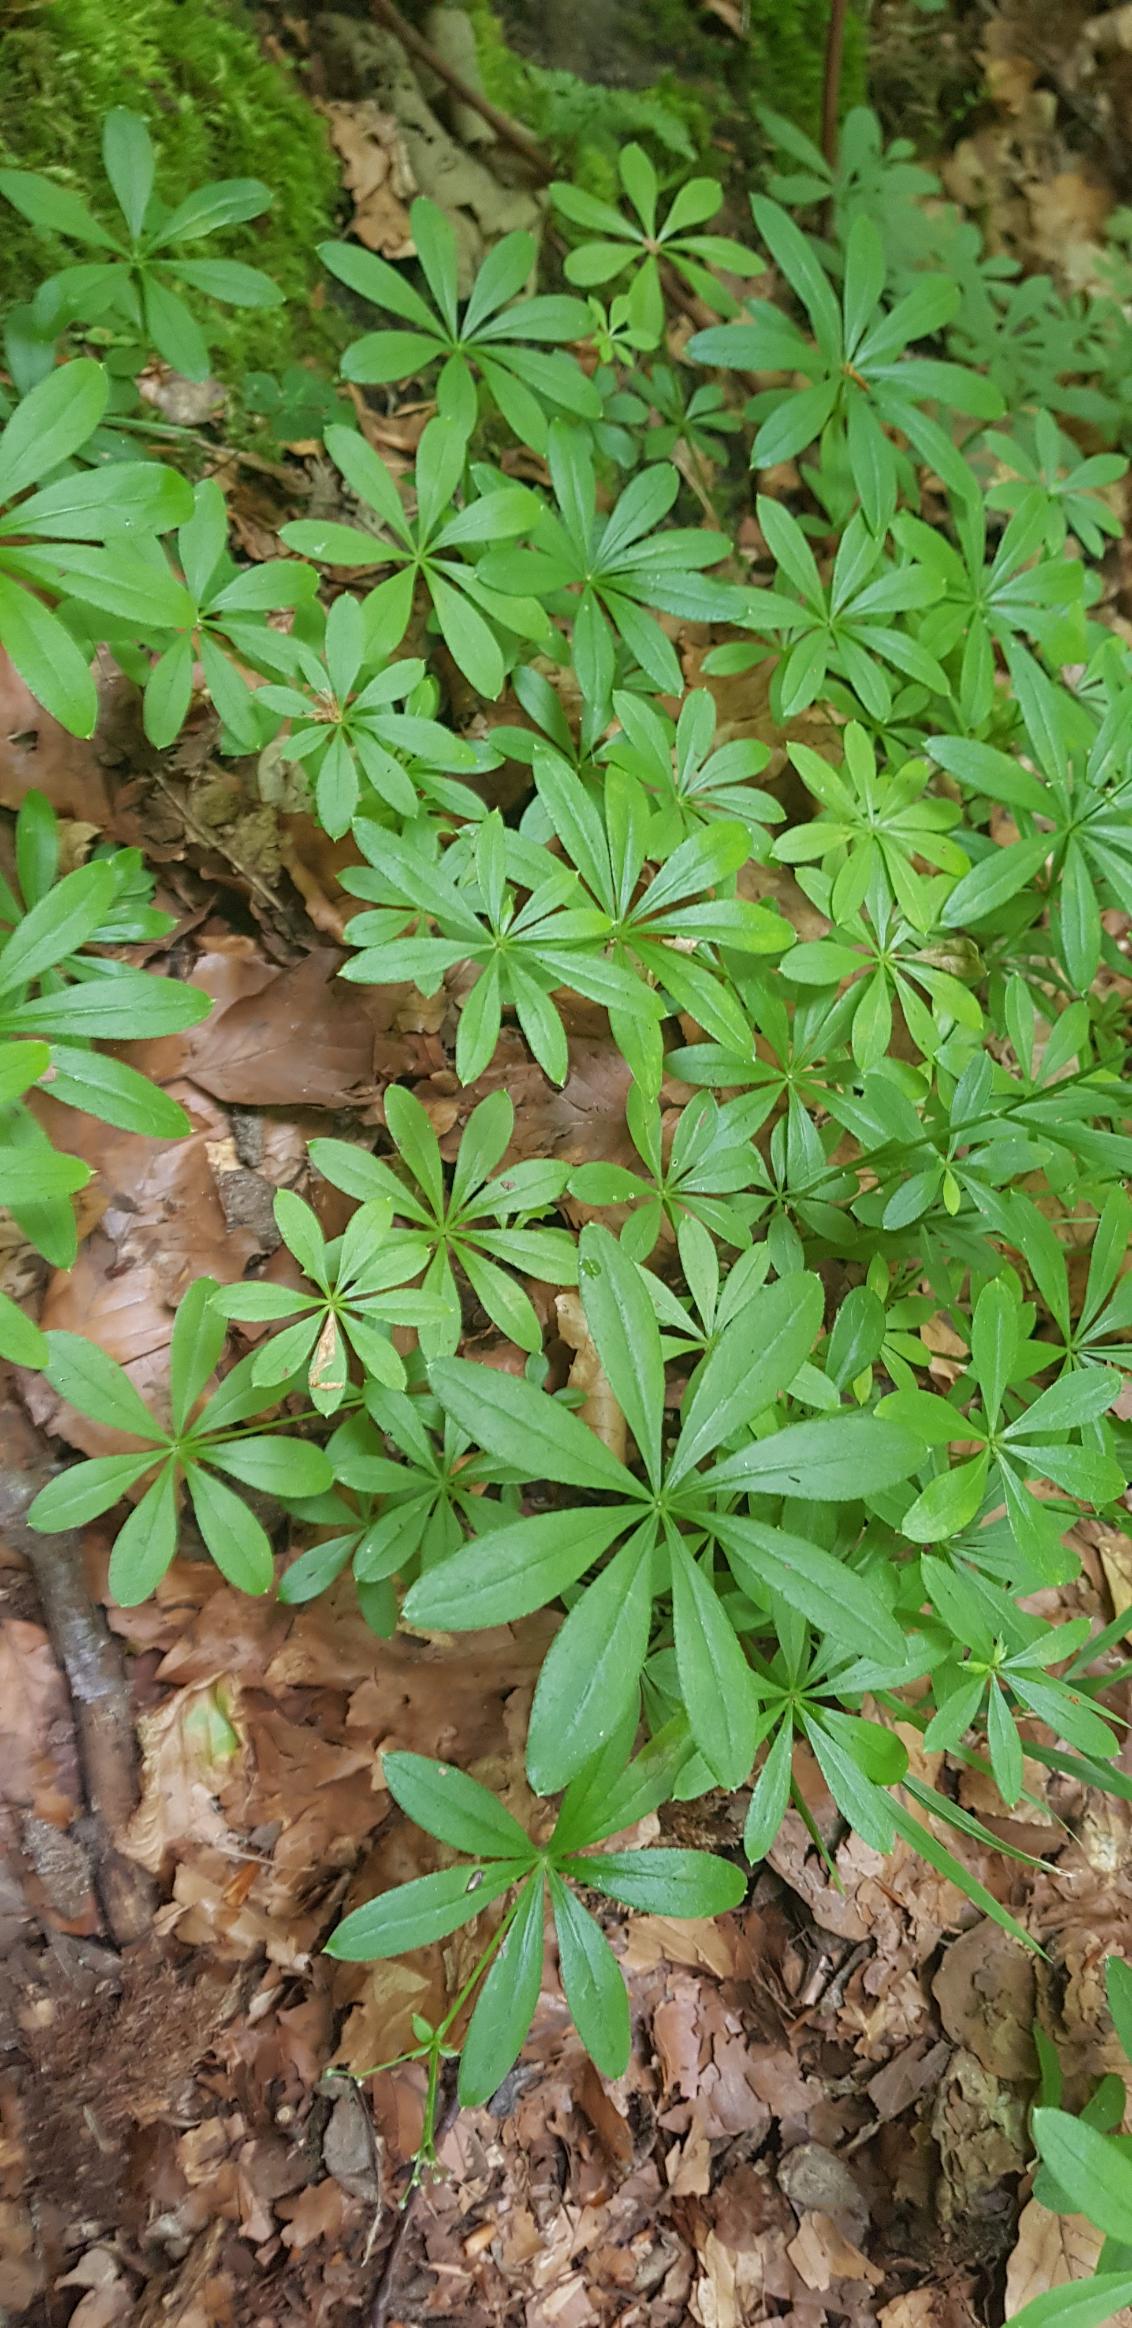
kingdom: Plantae
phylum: Tracheophyta
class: Magnoliopsida
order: Gentianales
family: Rubiaceae
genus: Galium
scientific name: Galium odoratum
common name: Skovmærke
